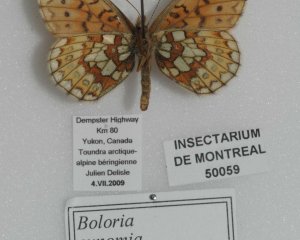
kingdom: Animalia
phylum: Arthropoda
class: Insecta
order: Lepidoptera
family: Nymphalidae
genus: Boloria
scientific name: Boloria eunomia
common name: Bog Fritillary
